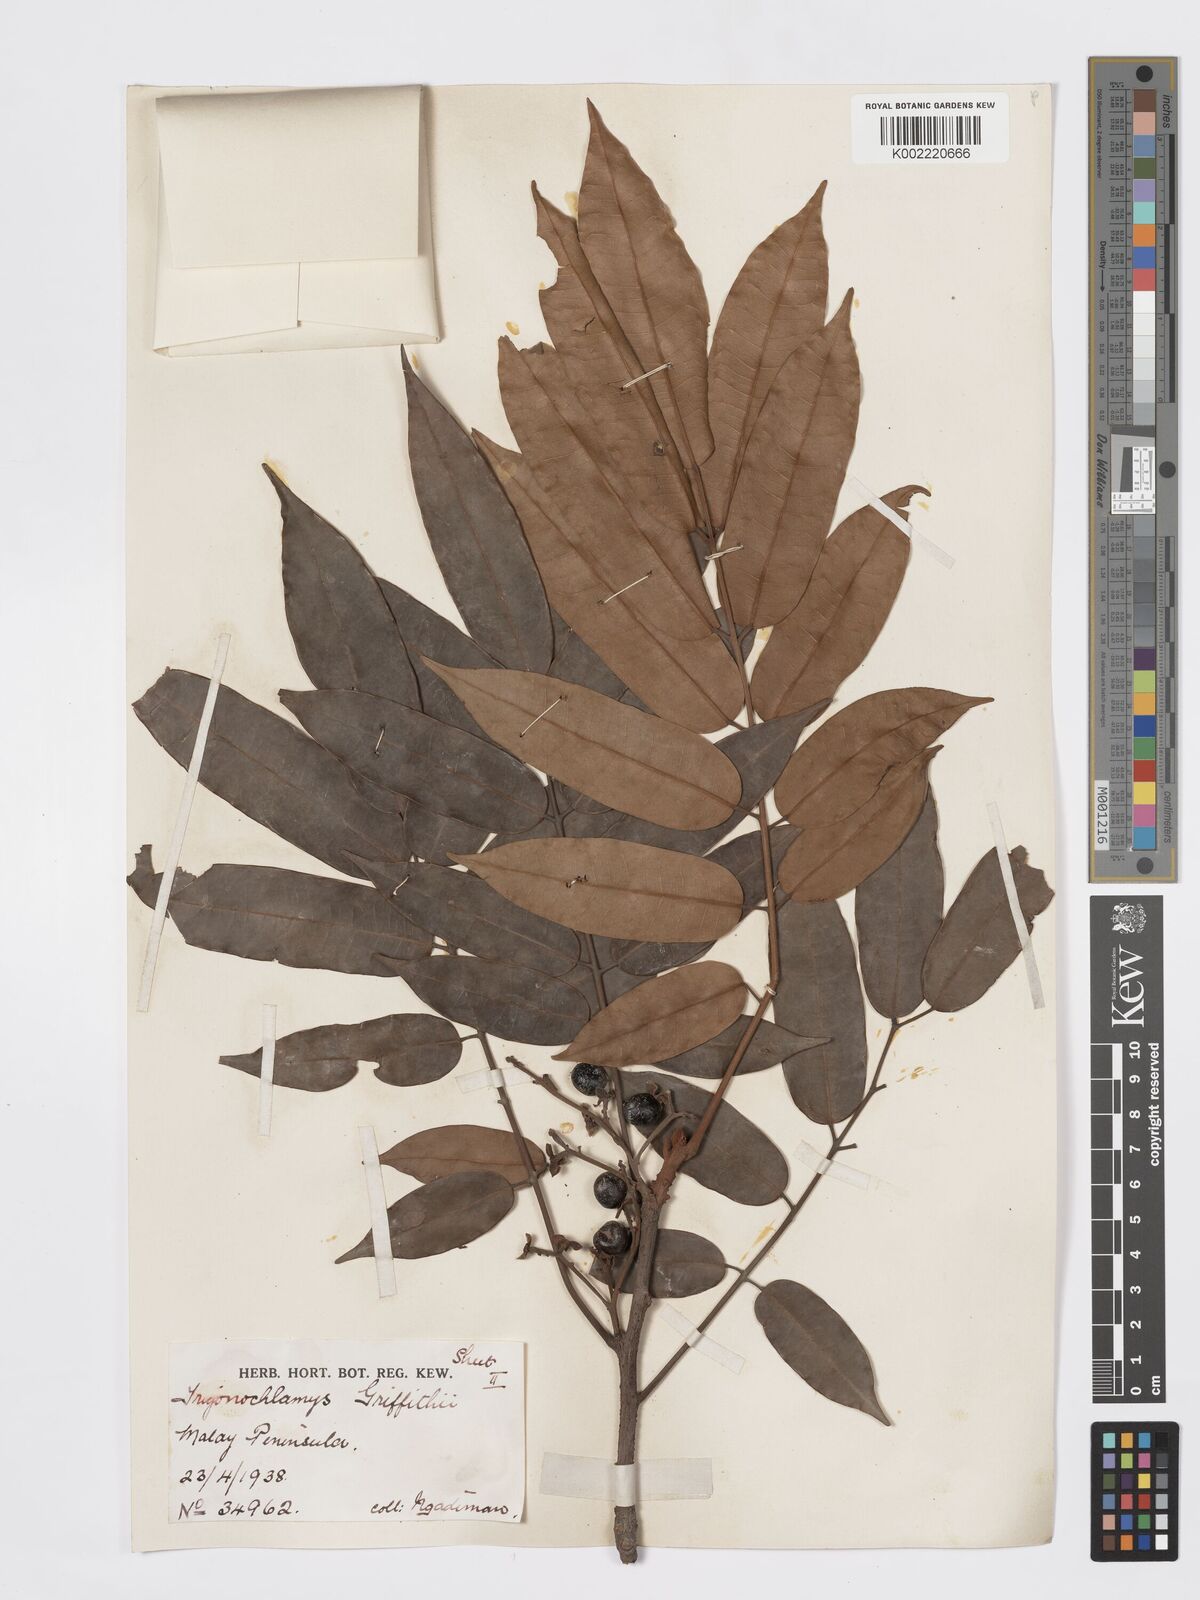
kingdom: Plantae
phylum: Tracheophyta
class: Magnoliopsida
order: Sapindales
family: Burseraceae
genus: Santiria
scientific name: Santiria griffithii
